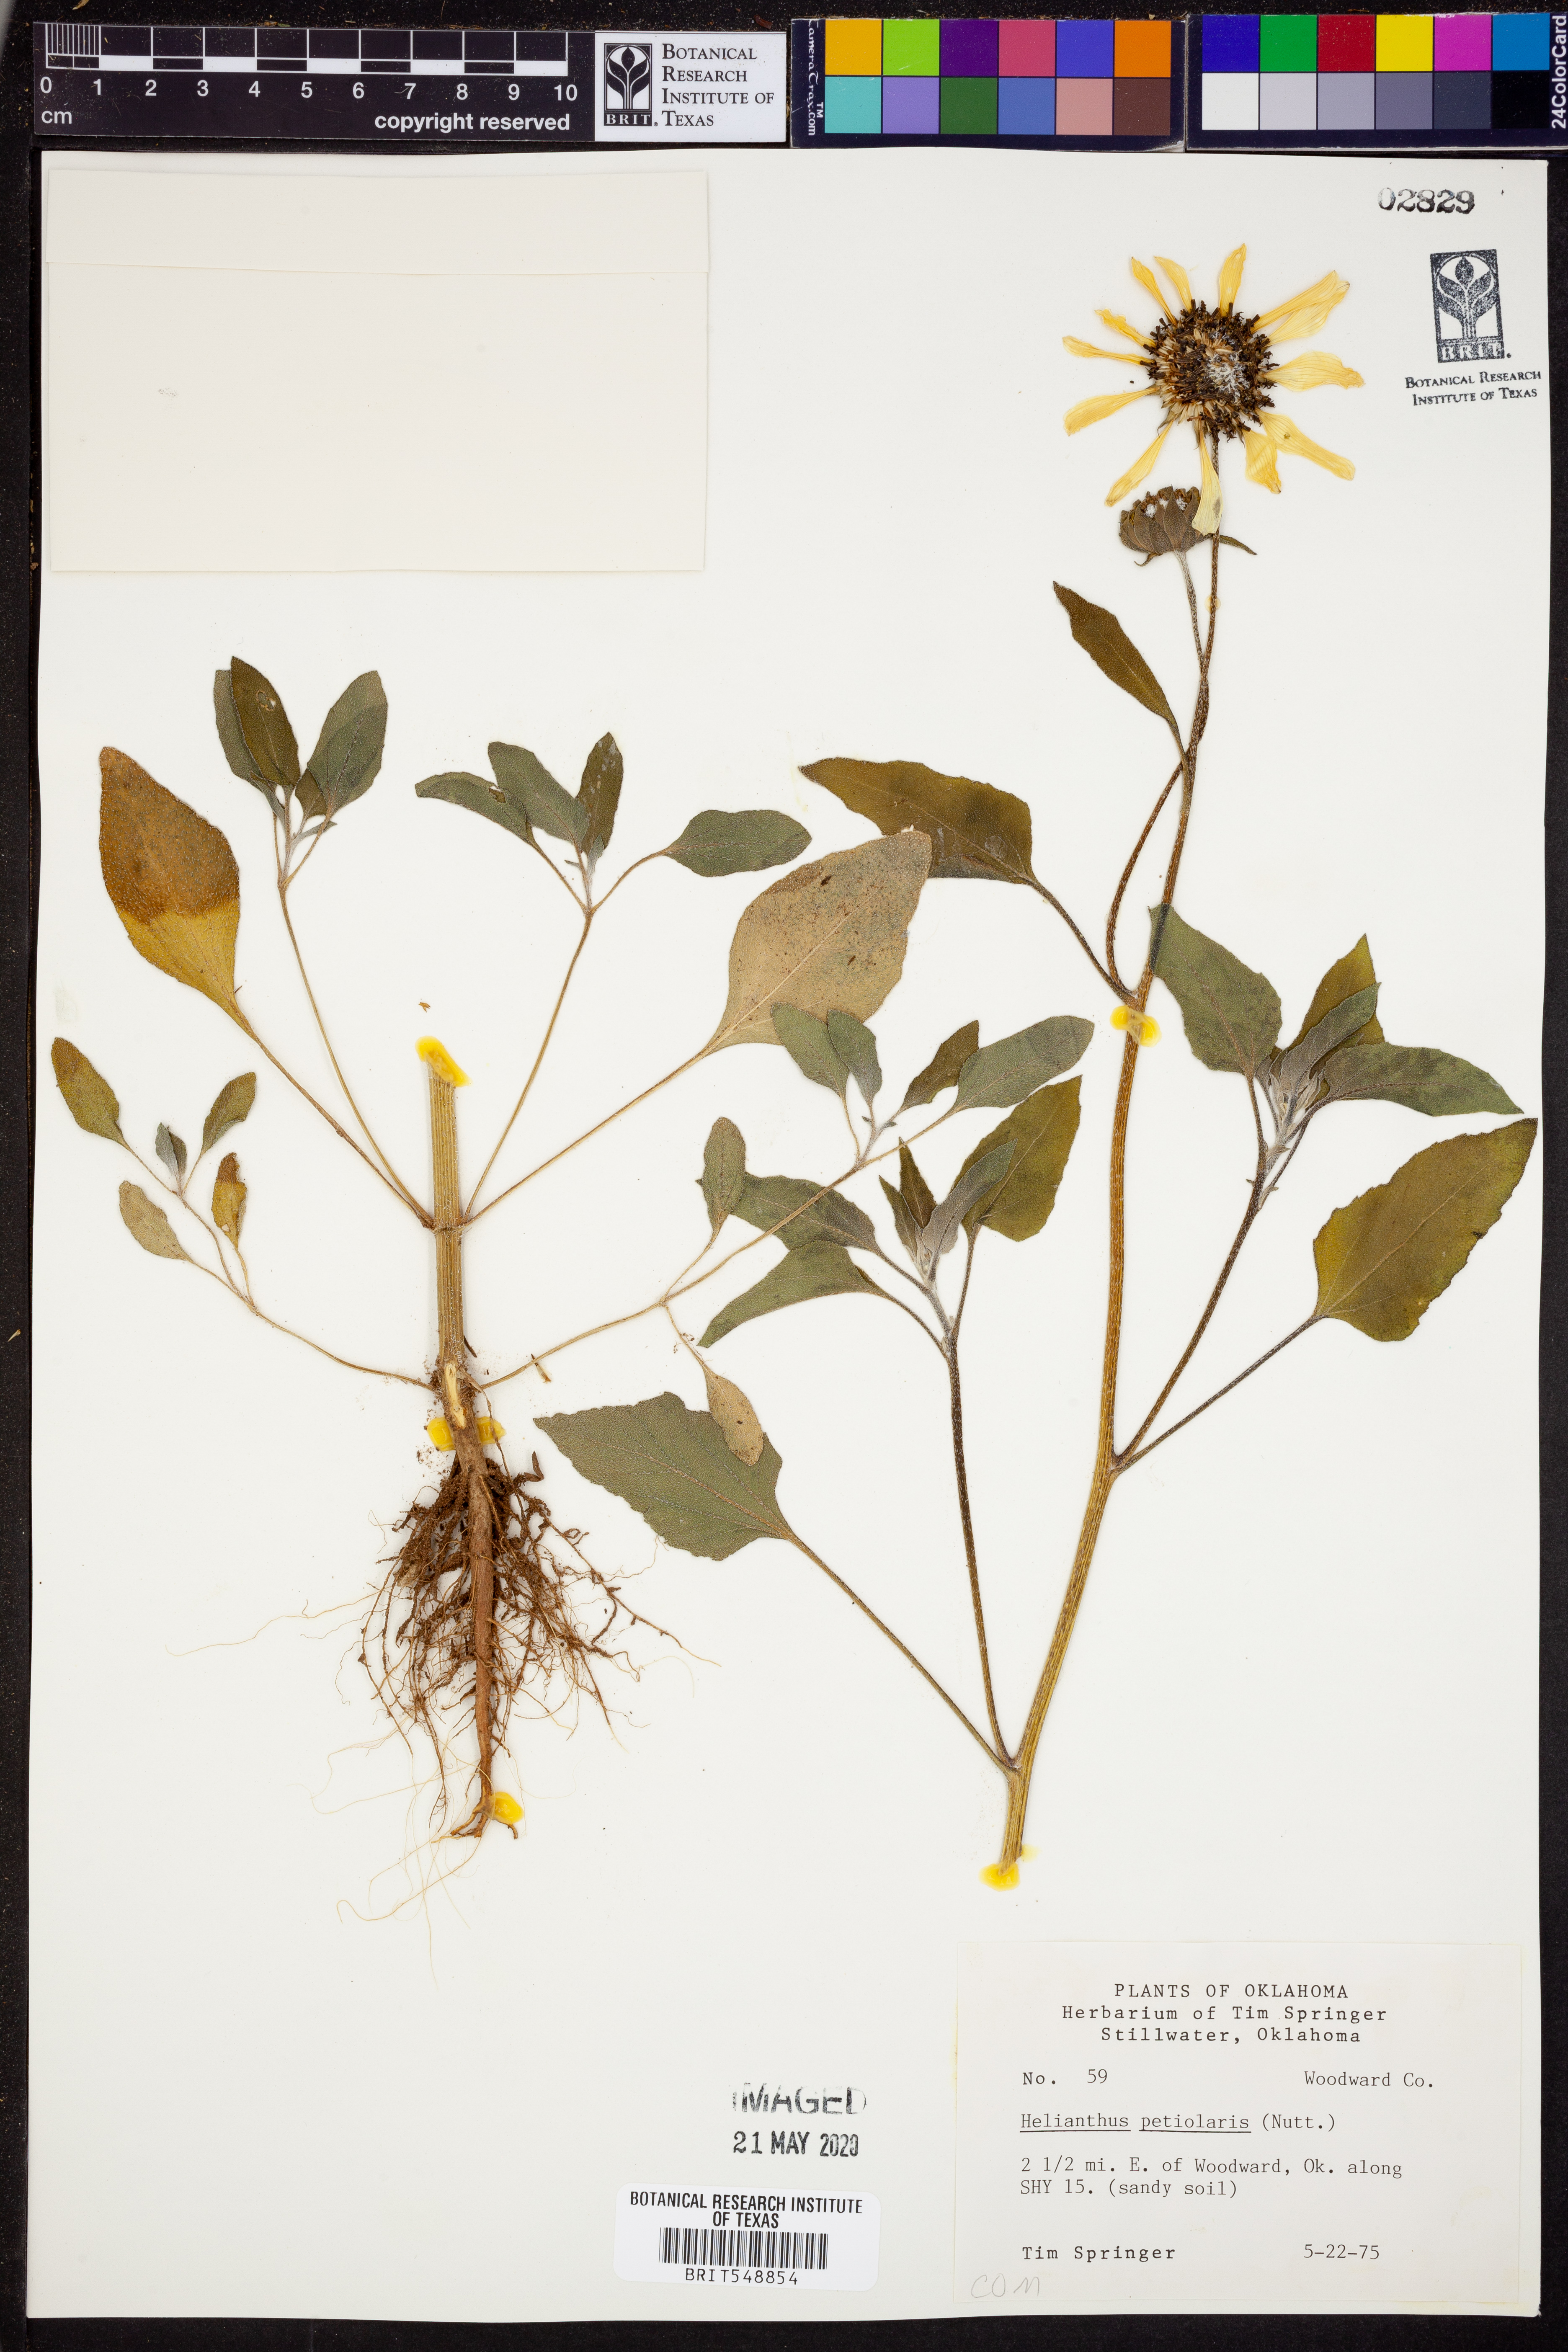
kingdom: Plantae
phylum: Tracheophyta
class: Magnoliopsida
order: Asterales
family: Asteraceae
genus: Helianthus
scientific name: Helianthus petiolaris
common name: Lesser sunflower
